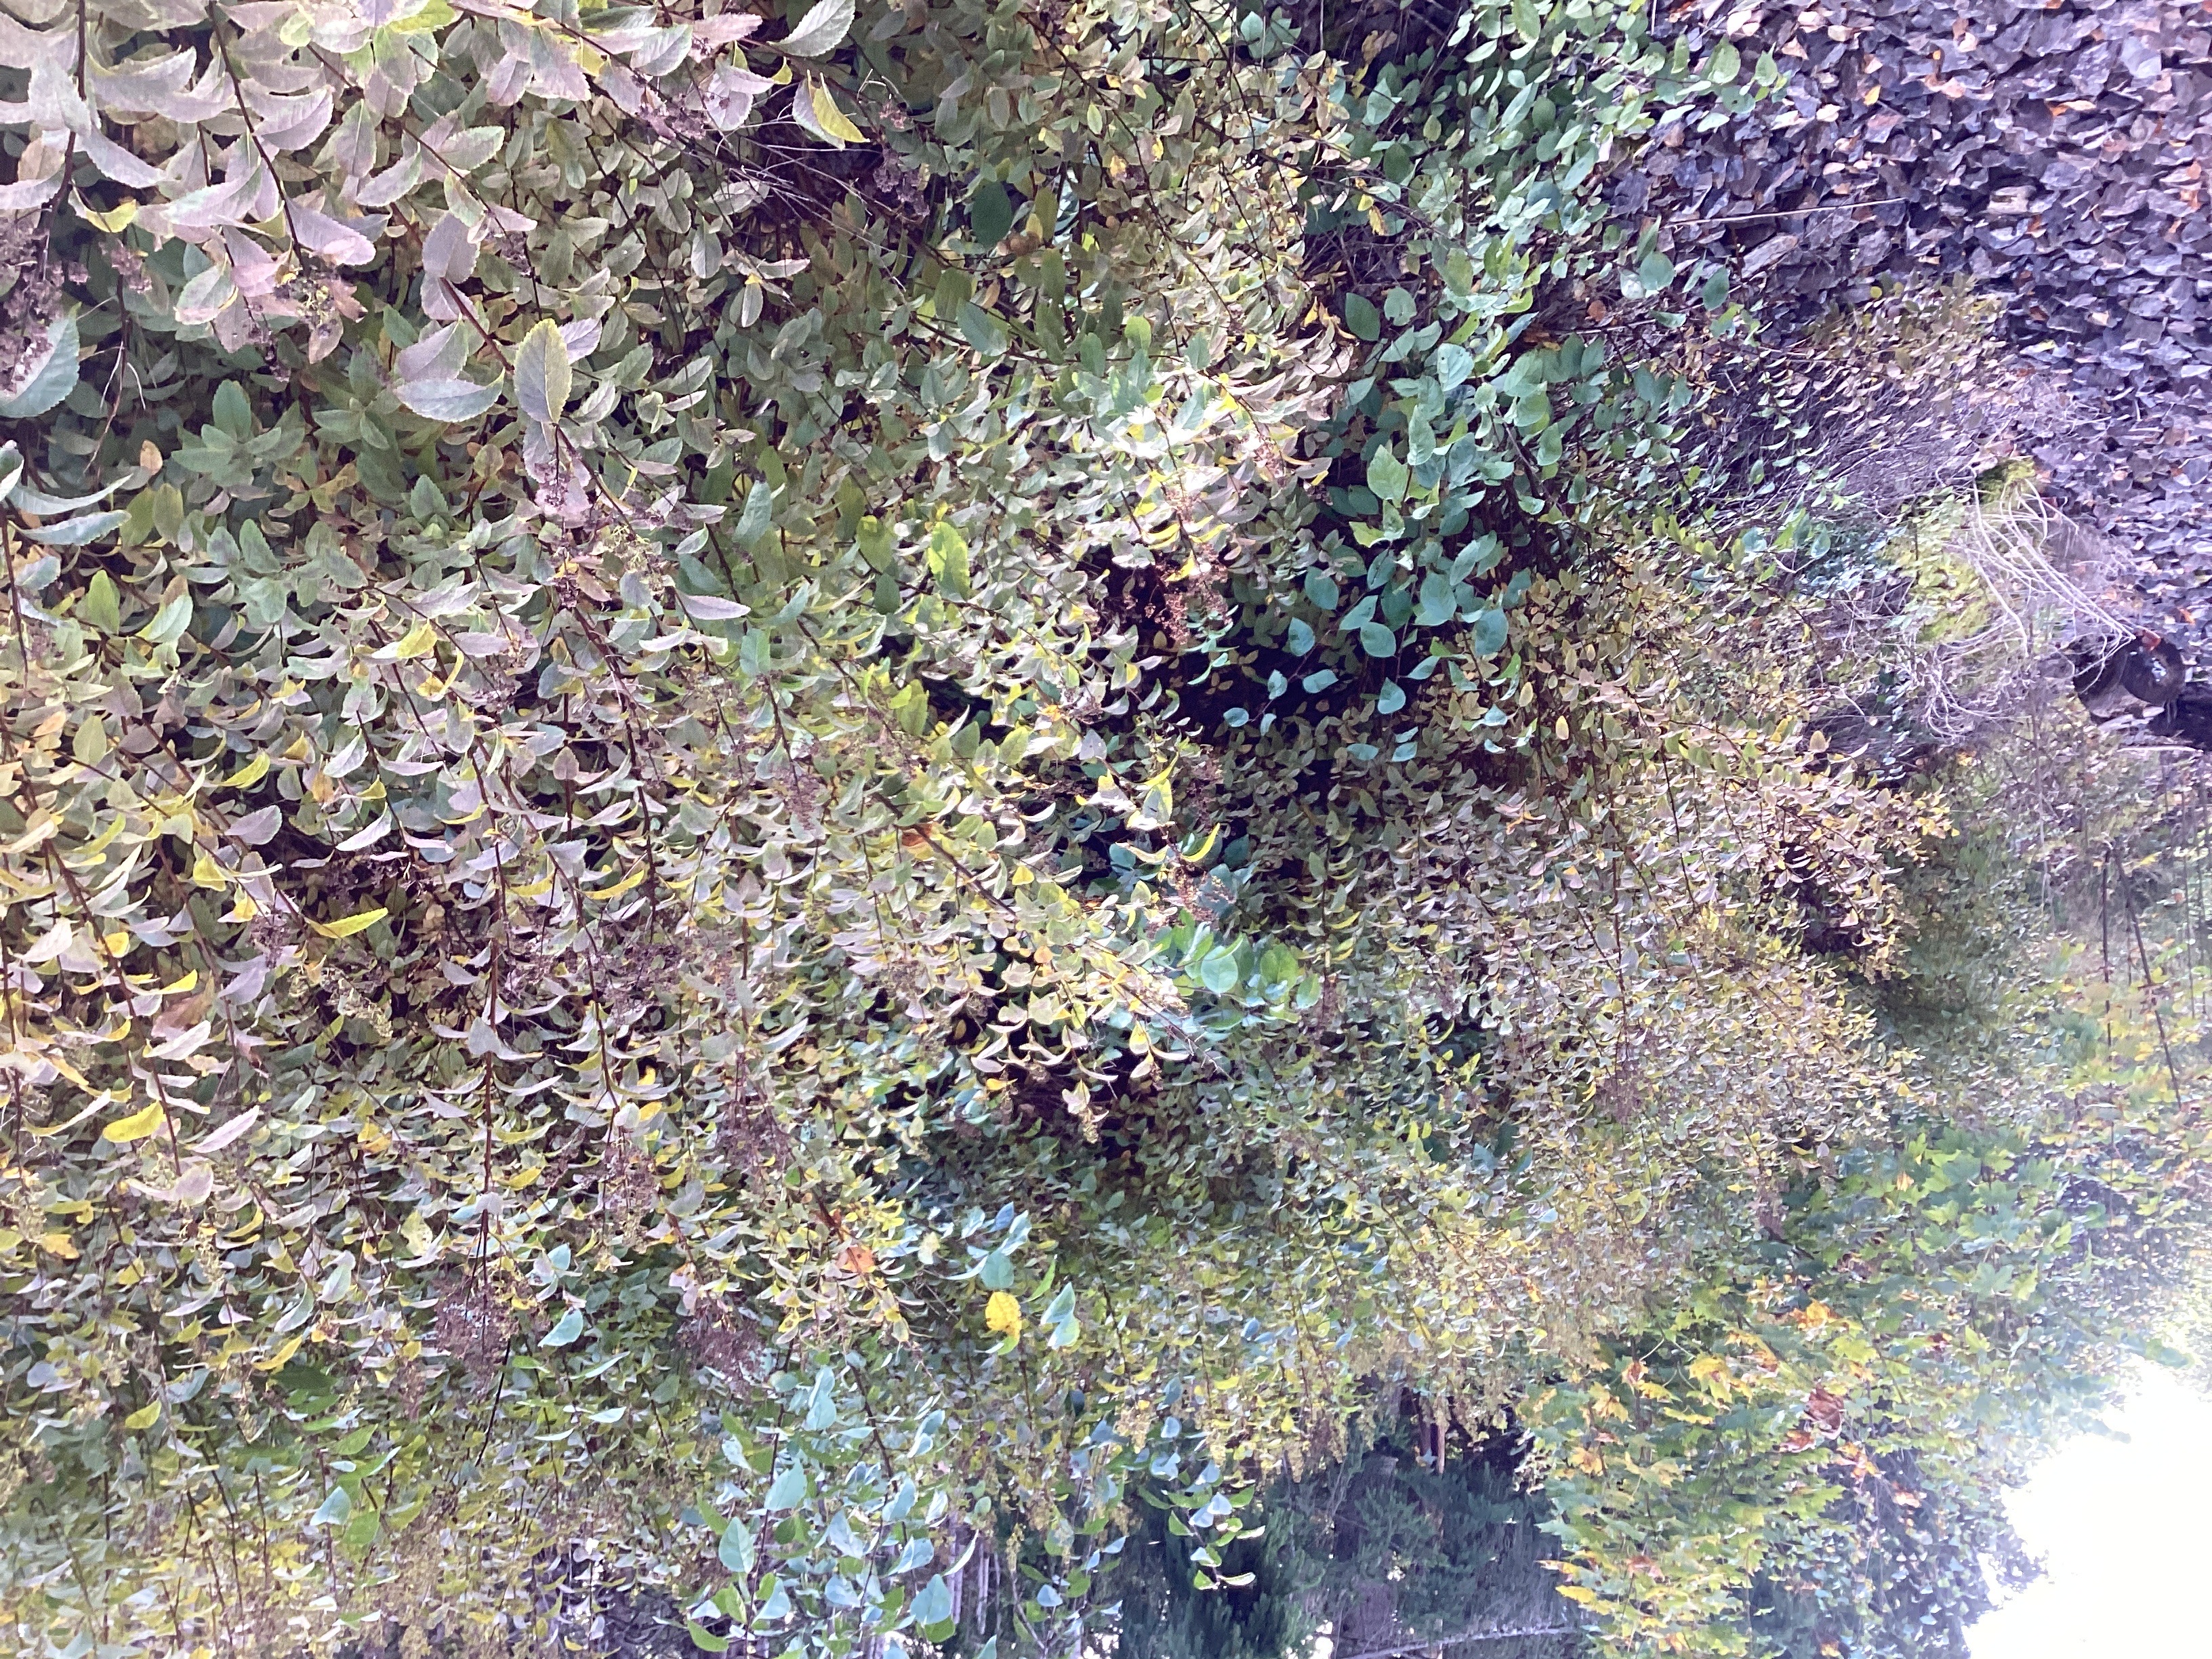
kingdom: Plantae
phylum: Tracheophyta
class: Magnoliopsida
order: Rosales
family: Rosaceae
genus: Spiraea
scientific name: Spiraea salicifolia
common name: hekkspirea
